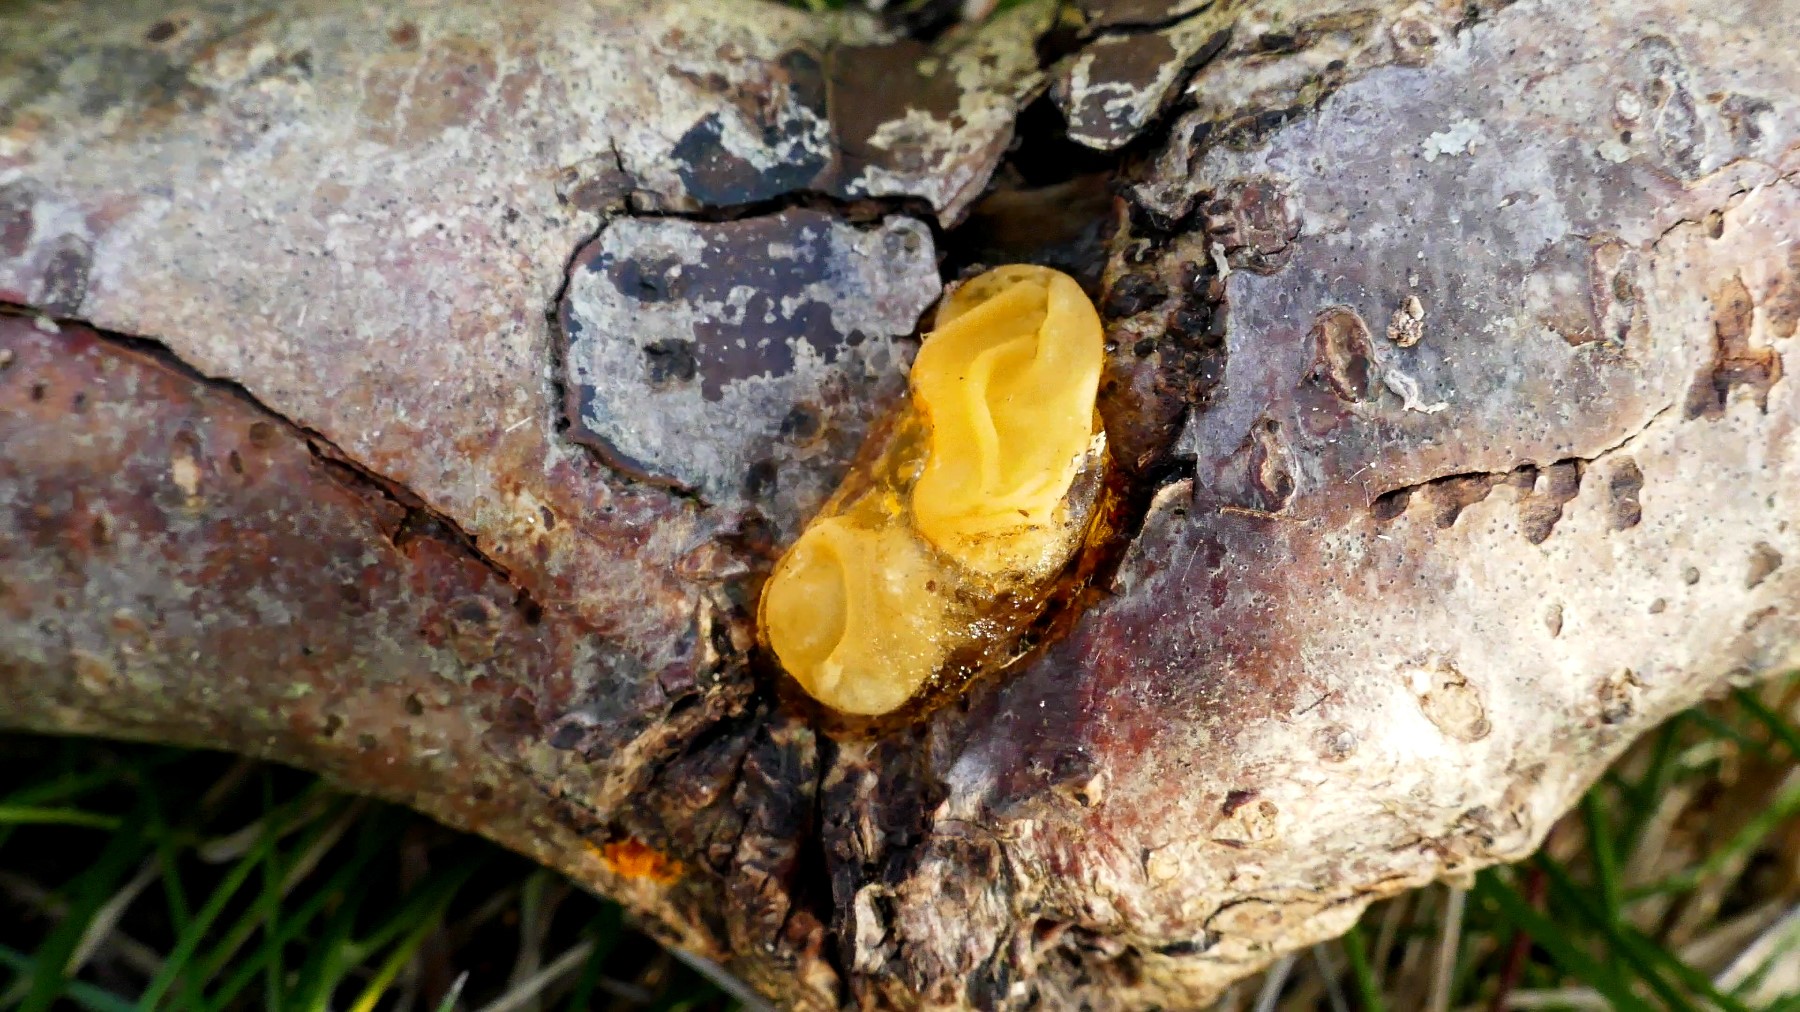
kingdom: Fungi
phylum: Basidiomycota
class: Tremellomycetes
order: Tremellales
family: Tremellaceae
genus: Tremella
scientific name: Tremella mesenterica
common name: gul bævresvamp
